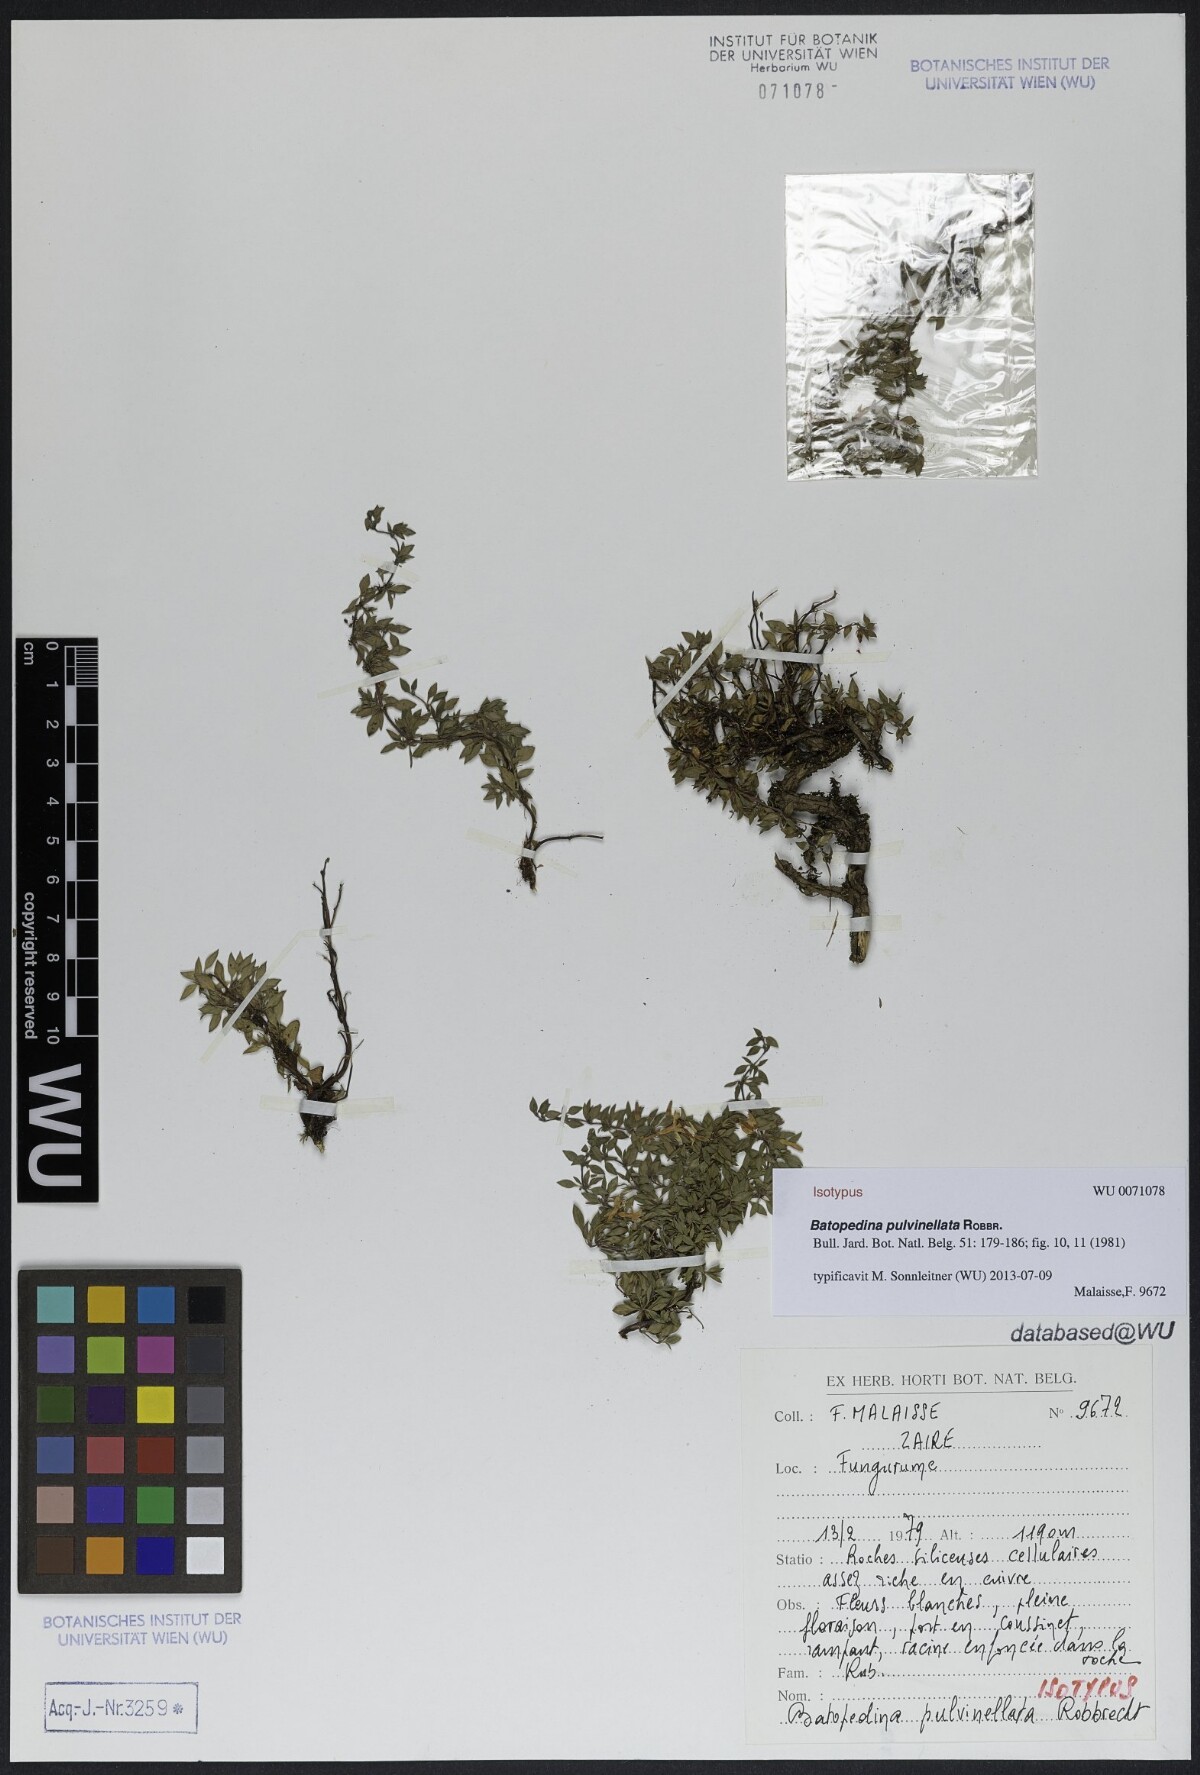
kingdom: Plantae
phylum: Tracheophyta
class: Magnoliopsida
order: Gentianales
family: Rubiaceae
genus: Batopedina
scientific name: Batopedina pulvinellata
